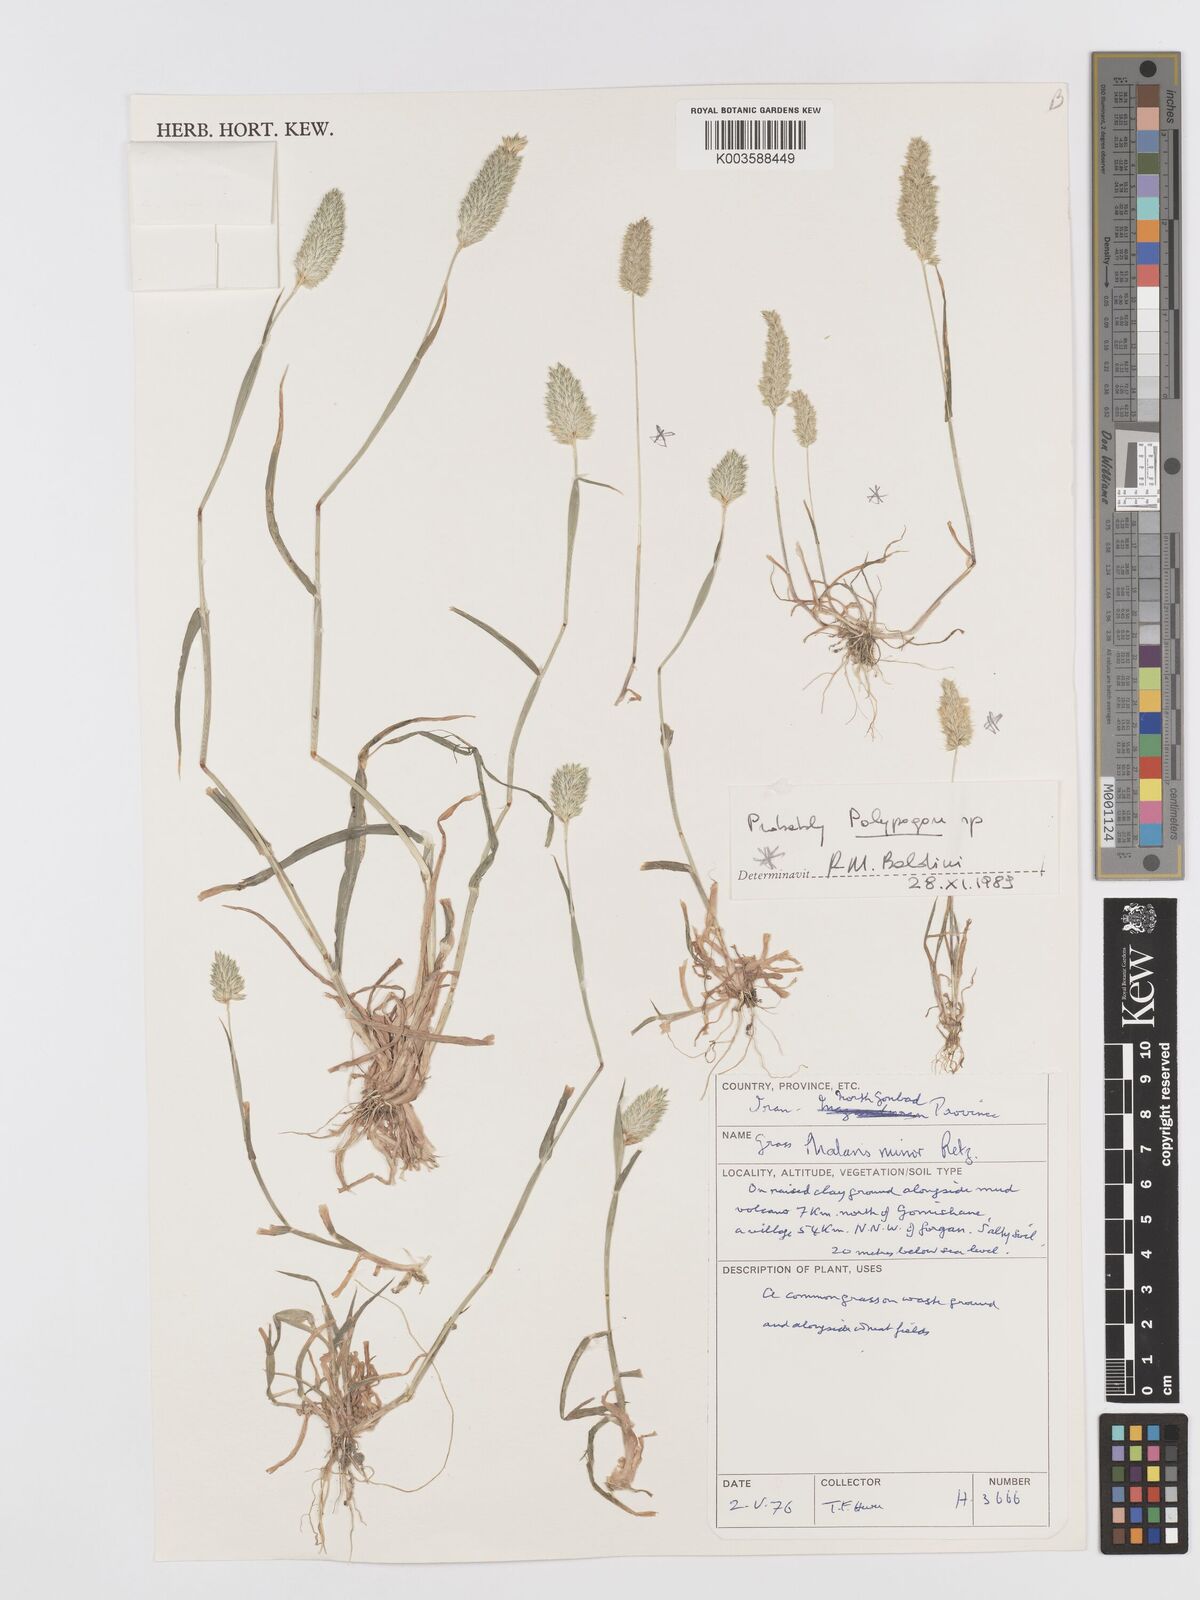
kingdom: Plantae
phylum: Tracheophyta
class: Liliopsida
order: Poales
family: Poaceae
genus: Phalaris
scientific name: Phalaris minor
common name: Littleseed canarygrass
